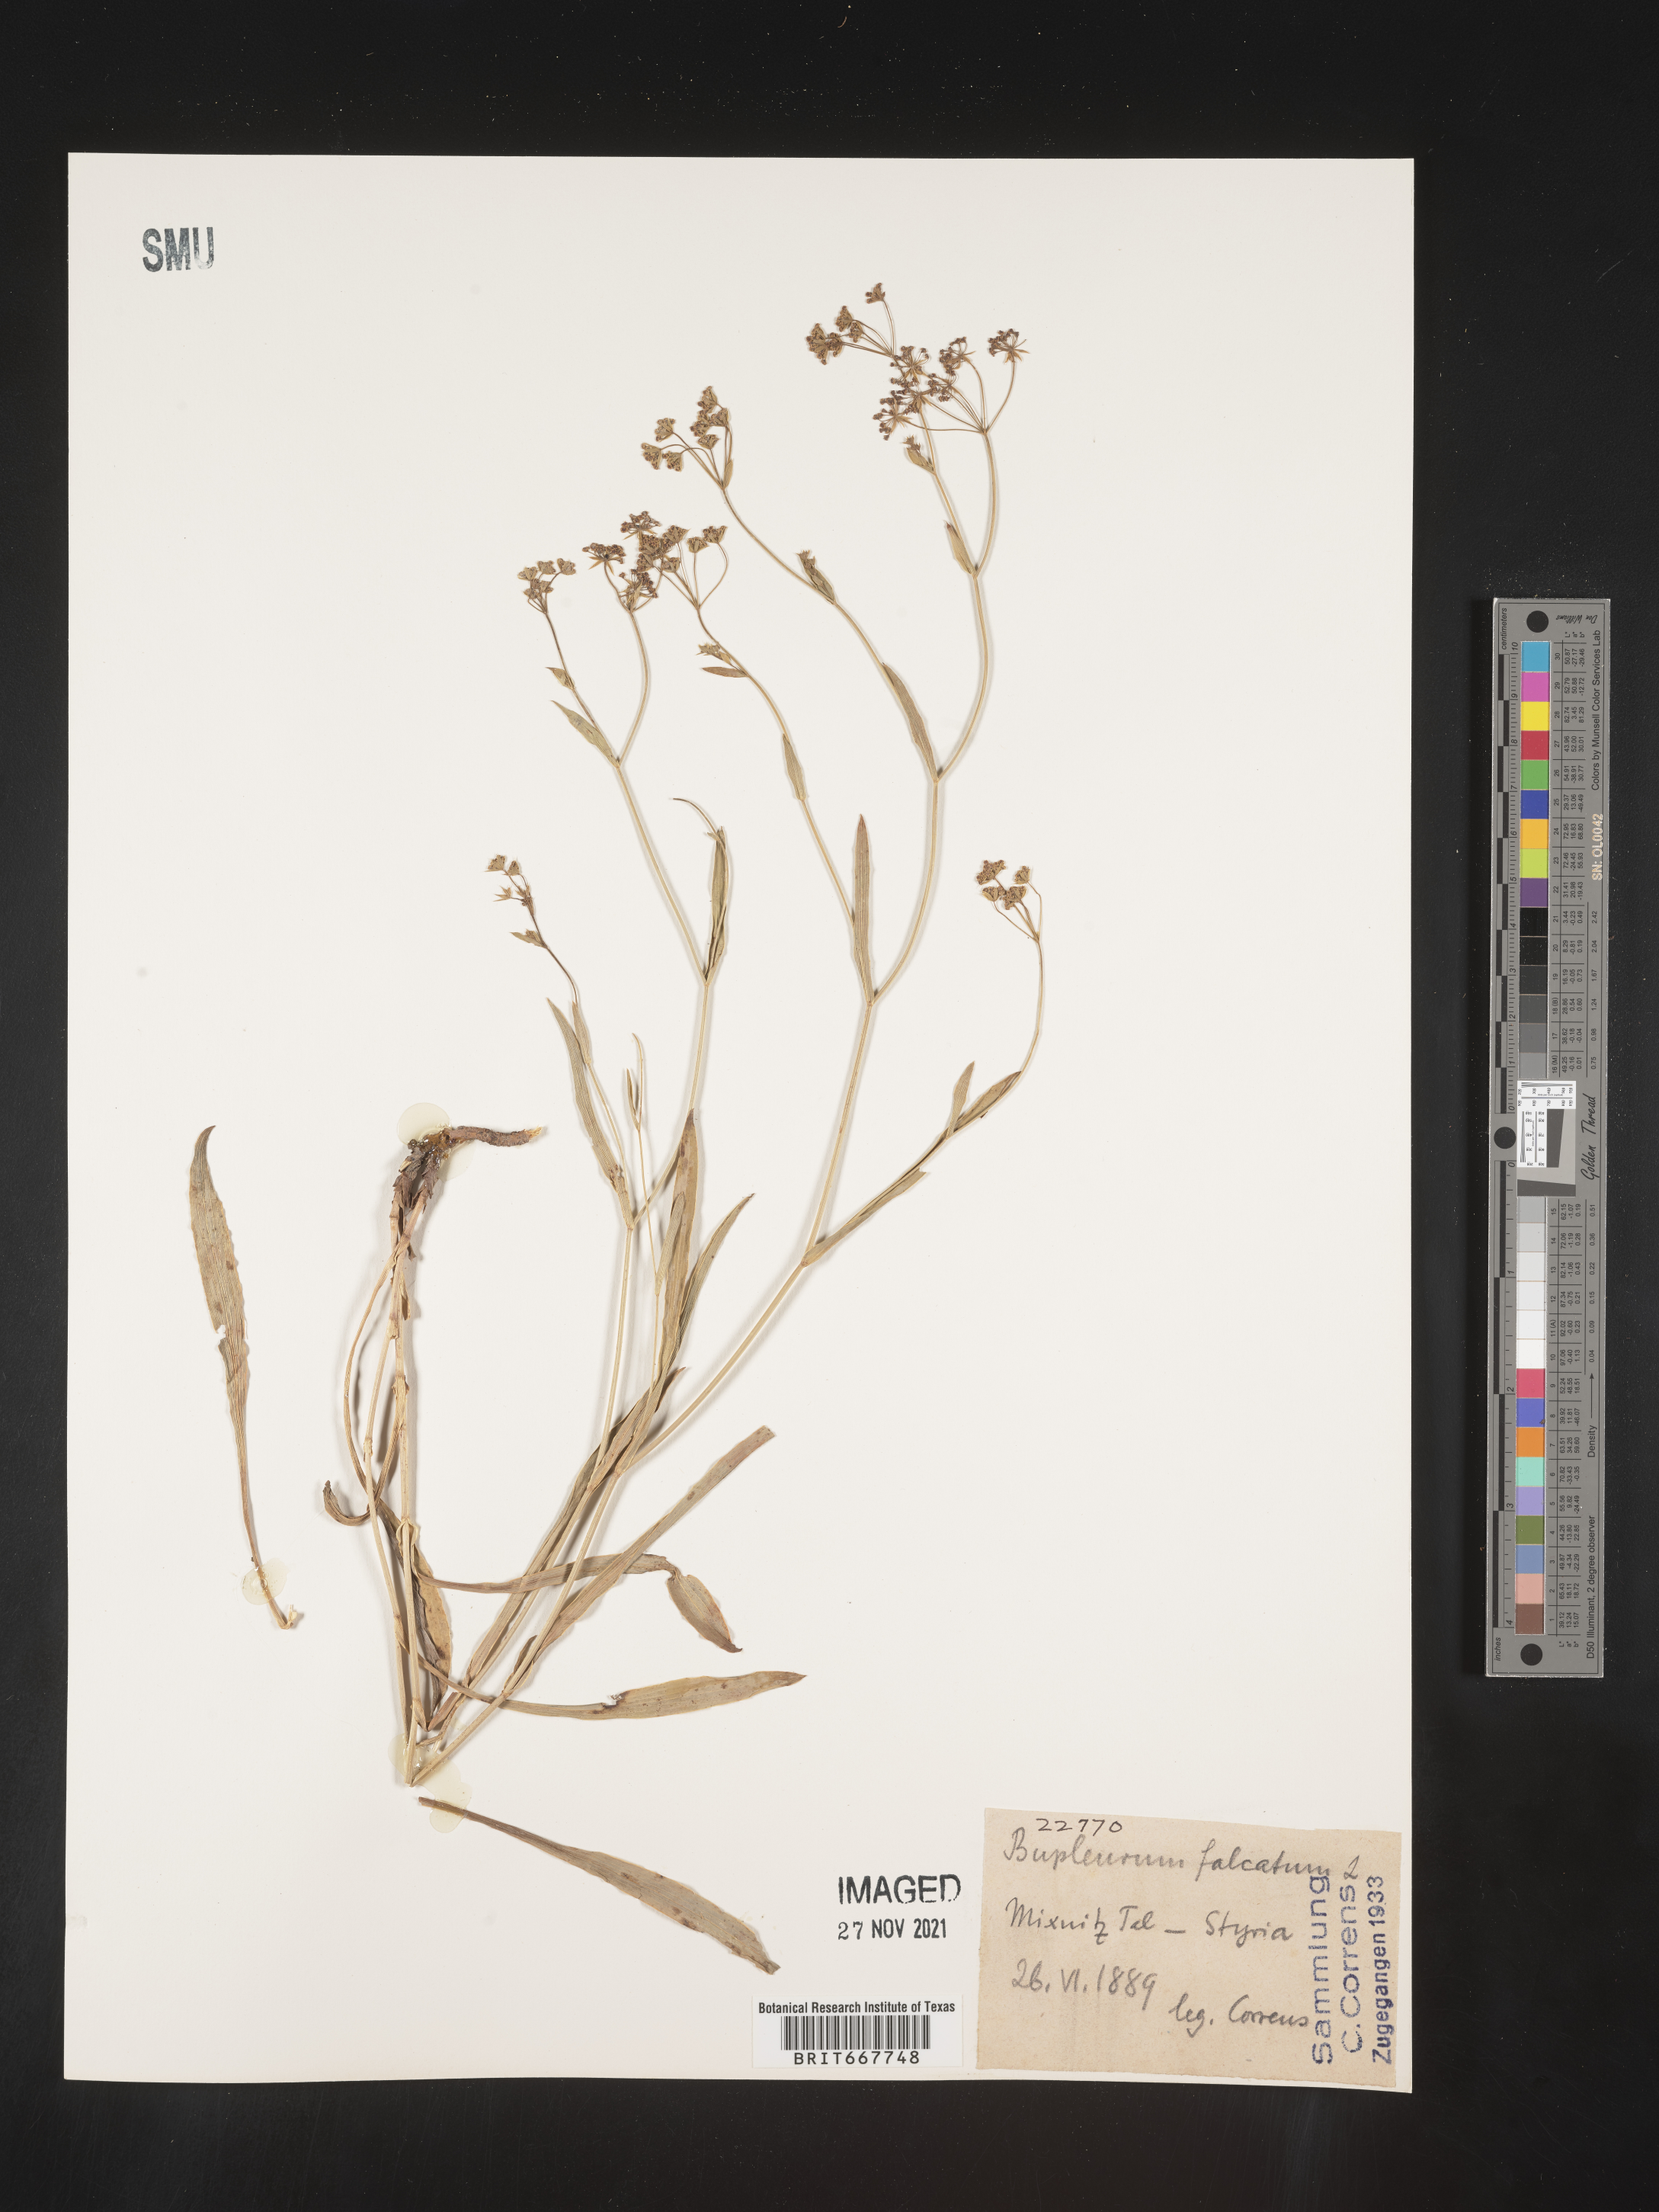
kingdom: Plantae
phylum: Tracheophyta
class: Magnoliopsida
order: Apiales
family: Apiaceae
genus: Bupleurum
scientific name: Bupleurum
